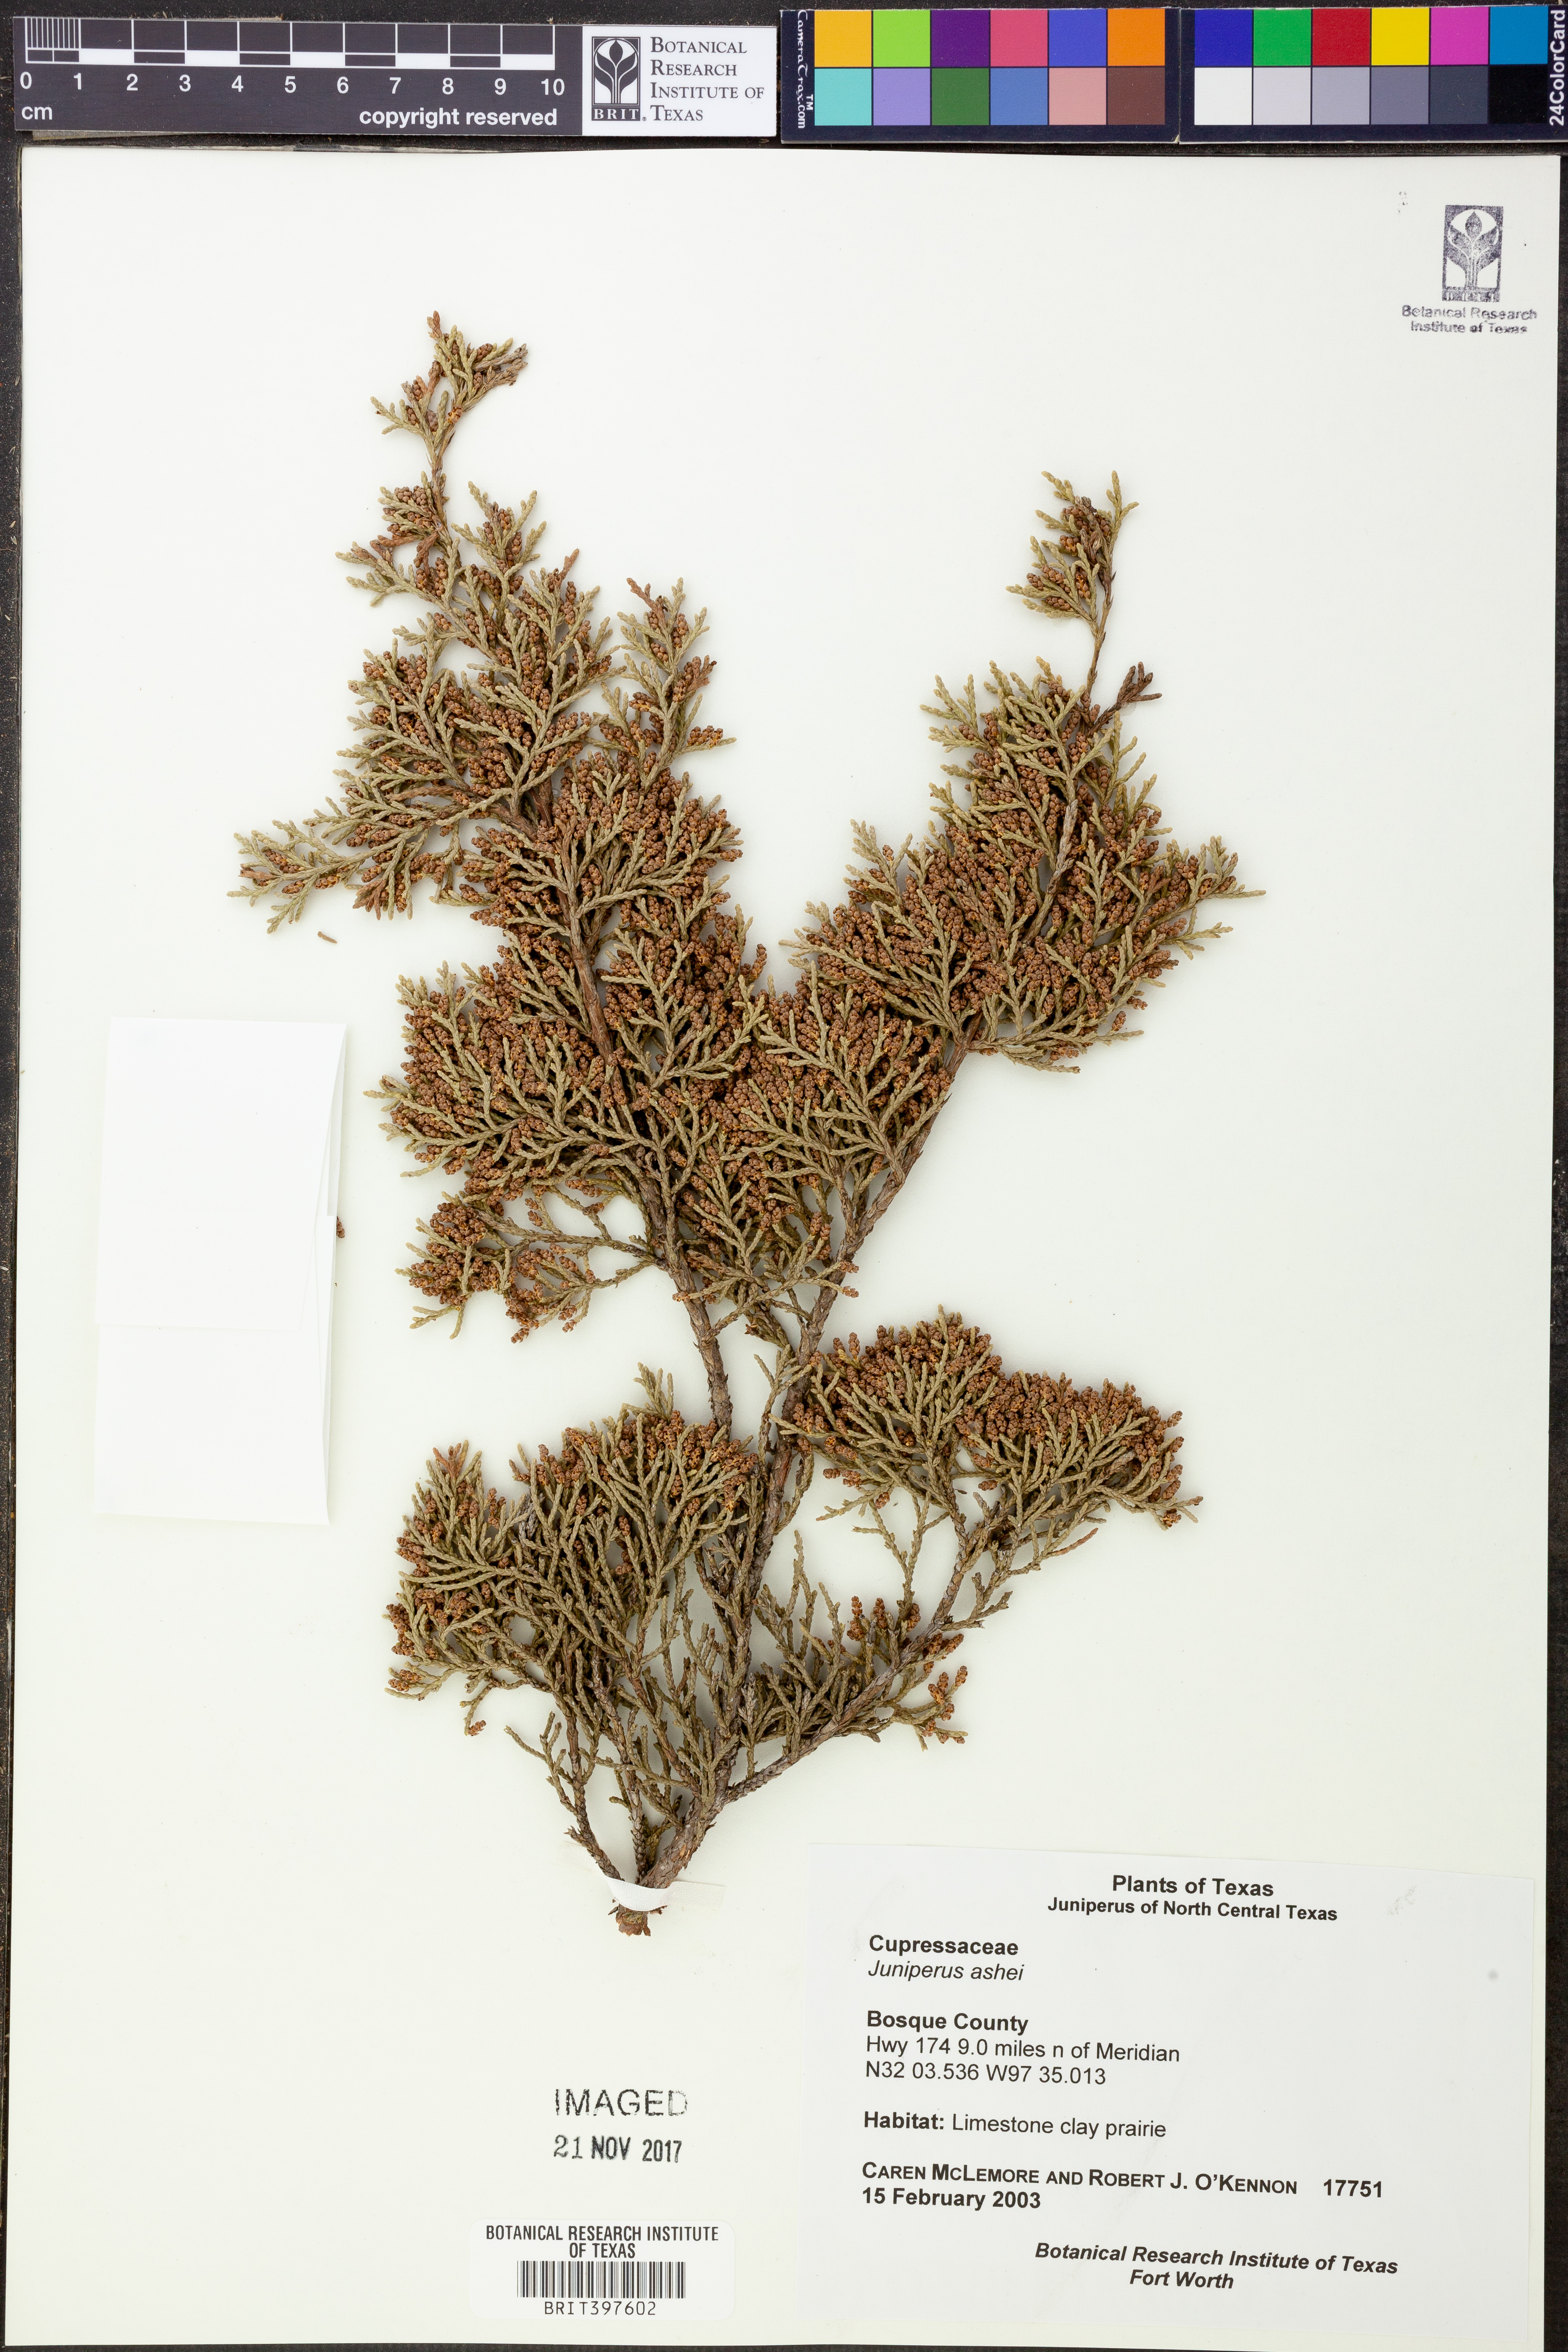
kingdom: Plantae
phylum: Tracheophyta
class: Pinopsida
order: Pinales
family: Cupressaceae
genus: Juniperus
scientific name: Juniperus ashei
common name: Mexican juniper
